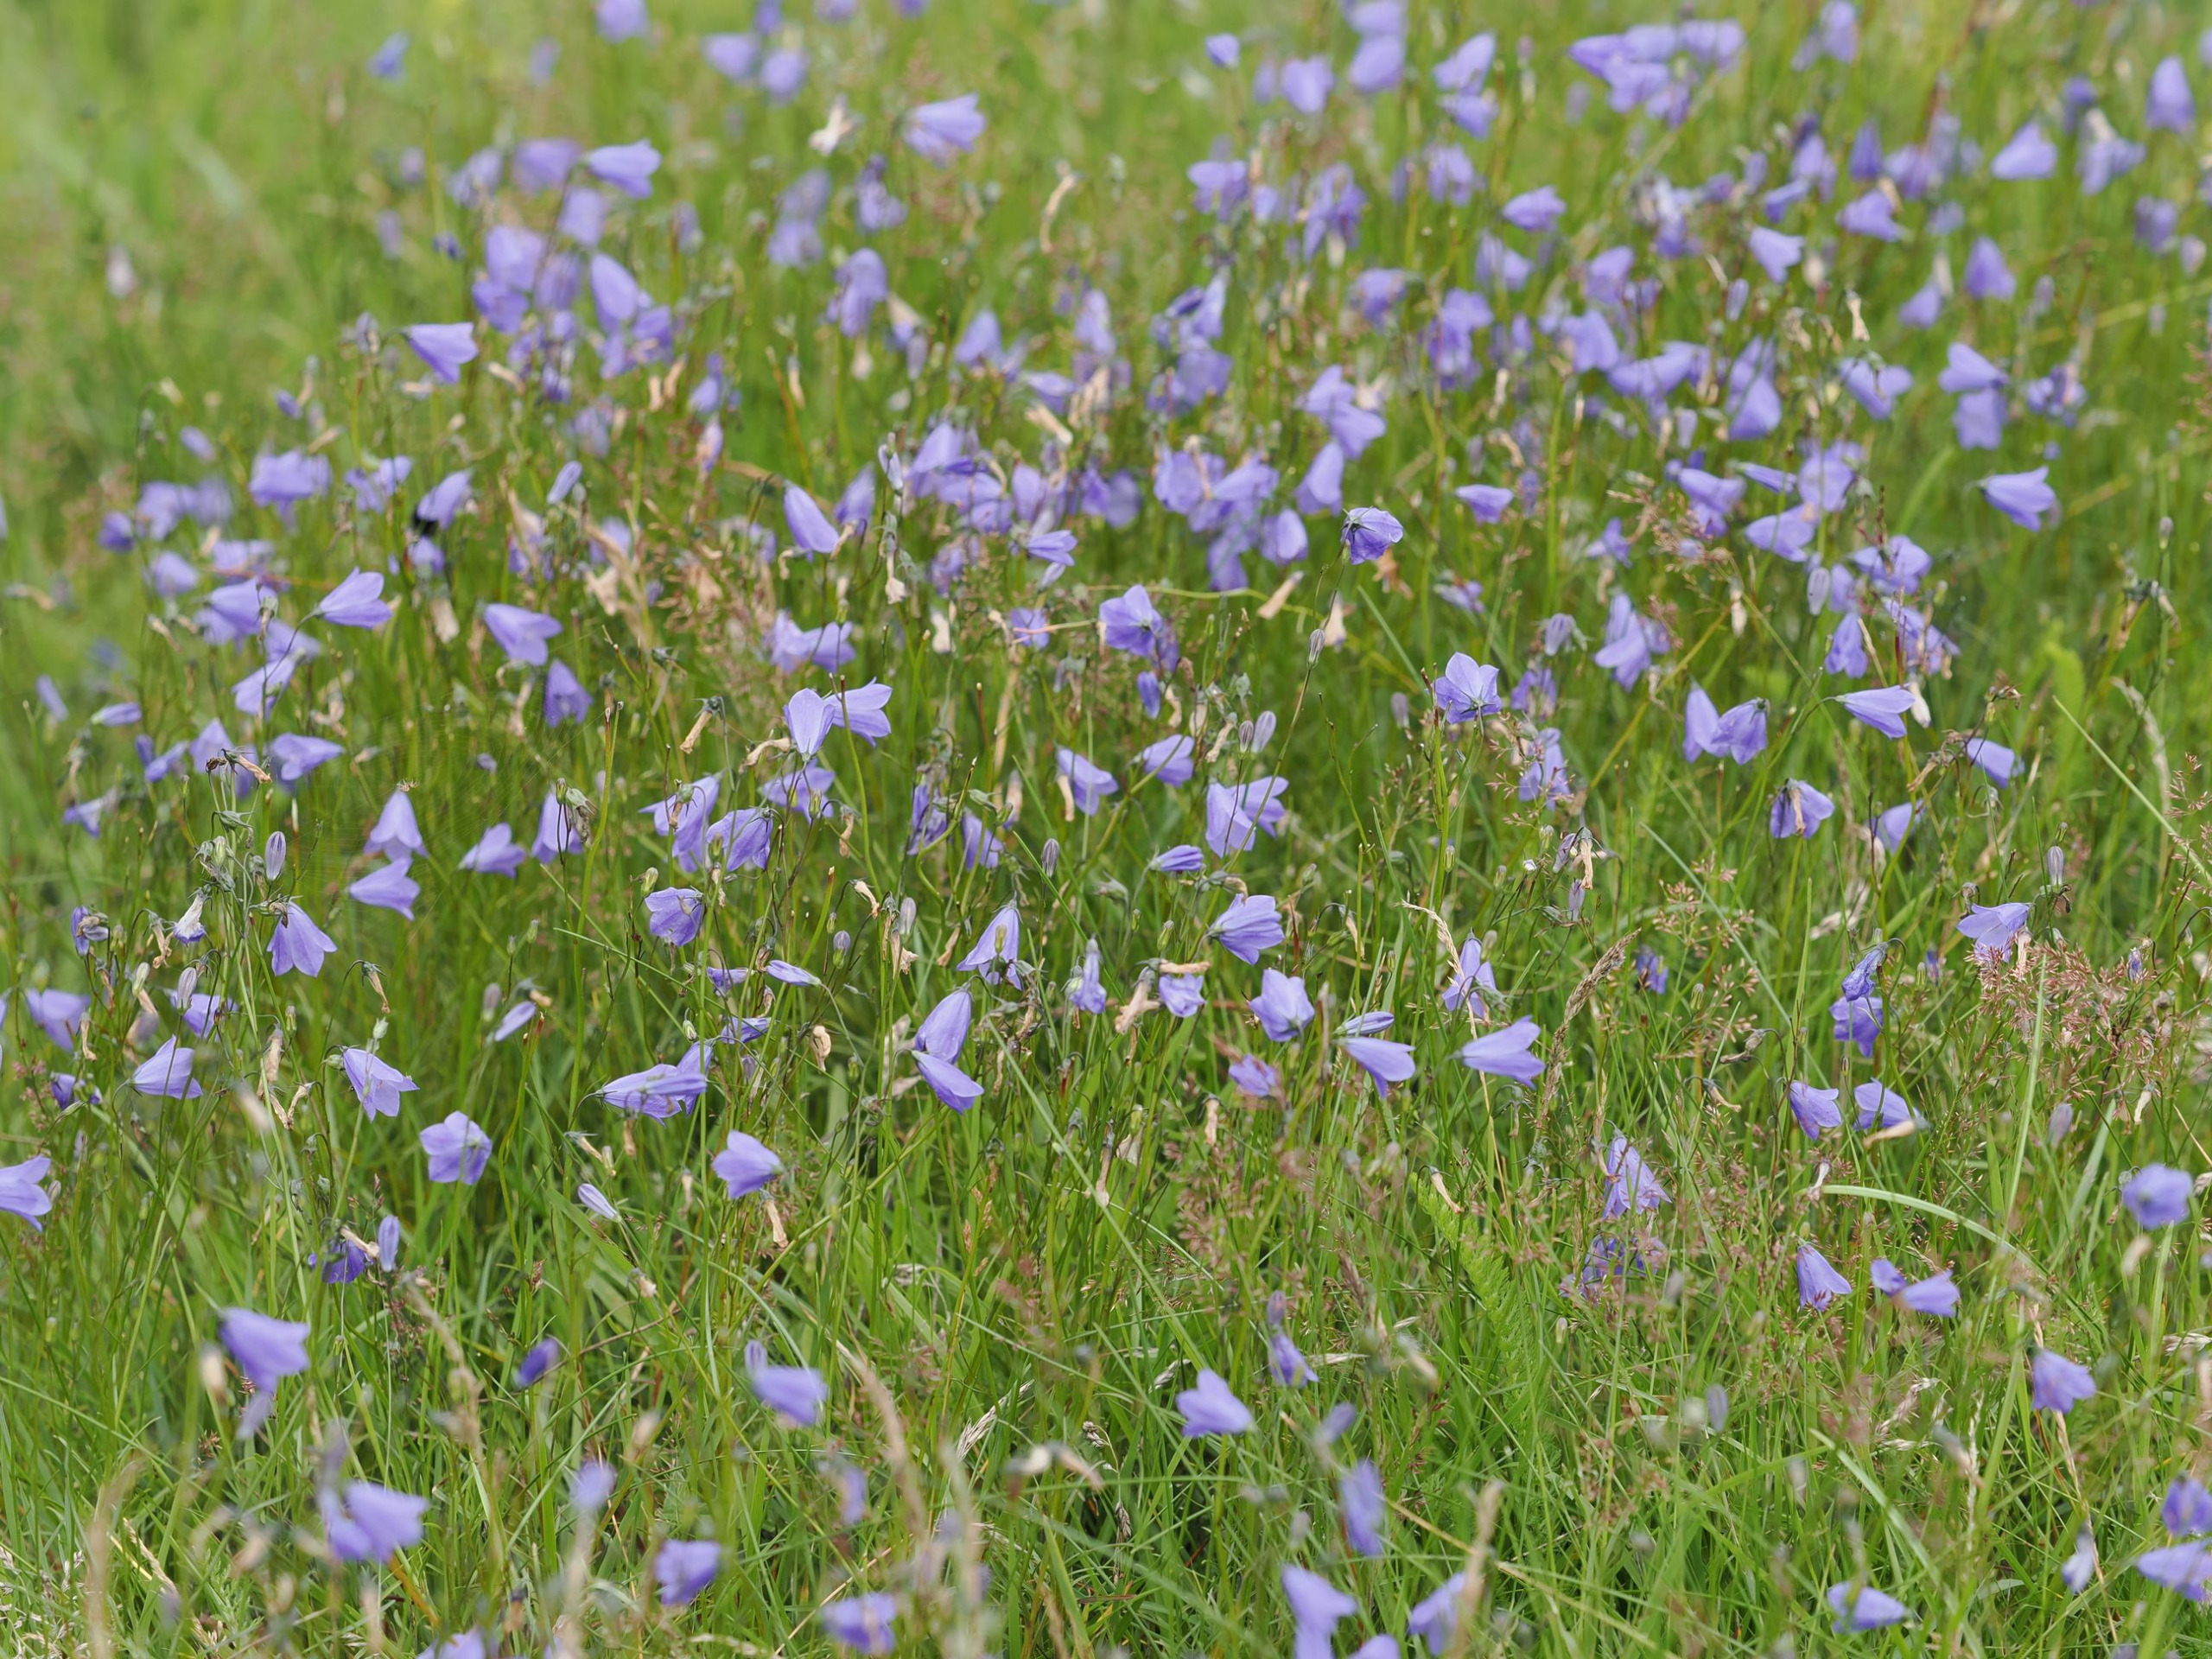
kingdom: Plantae
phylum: Tracheophyta
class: Magnoliopsida
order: Asterales
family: Campanulaceae
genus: Campanula
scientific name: Campanula rotundifolia
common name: Liden klokke
